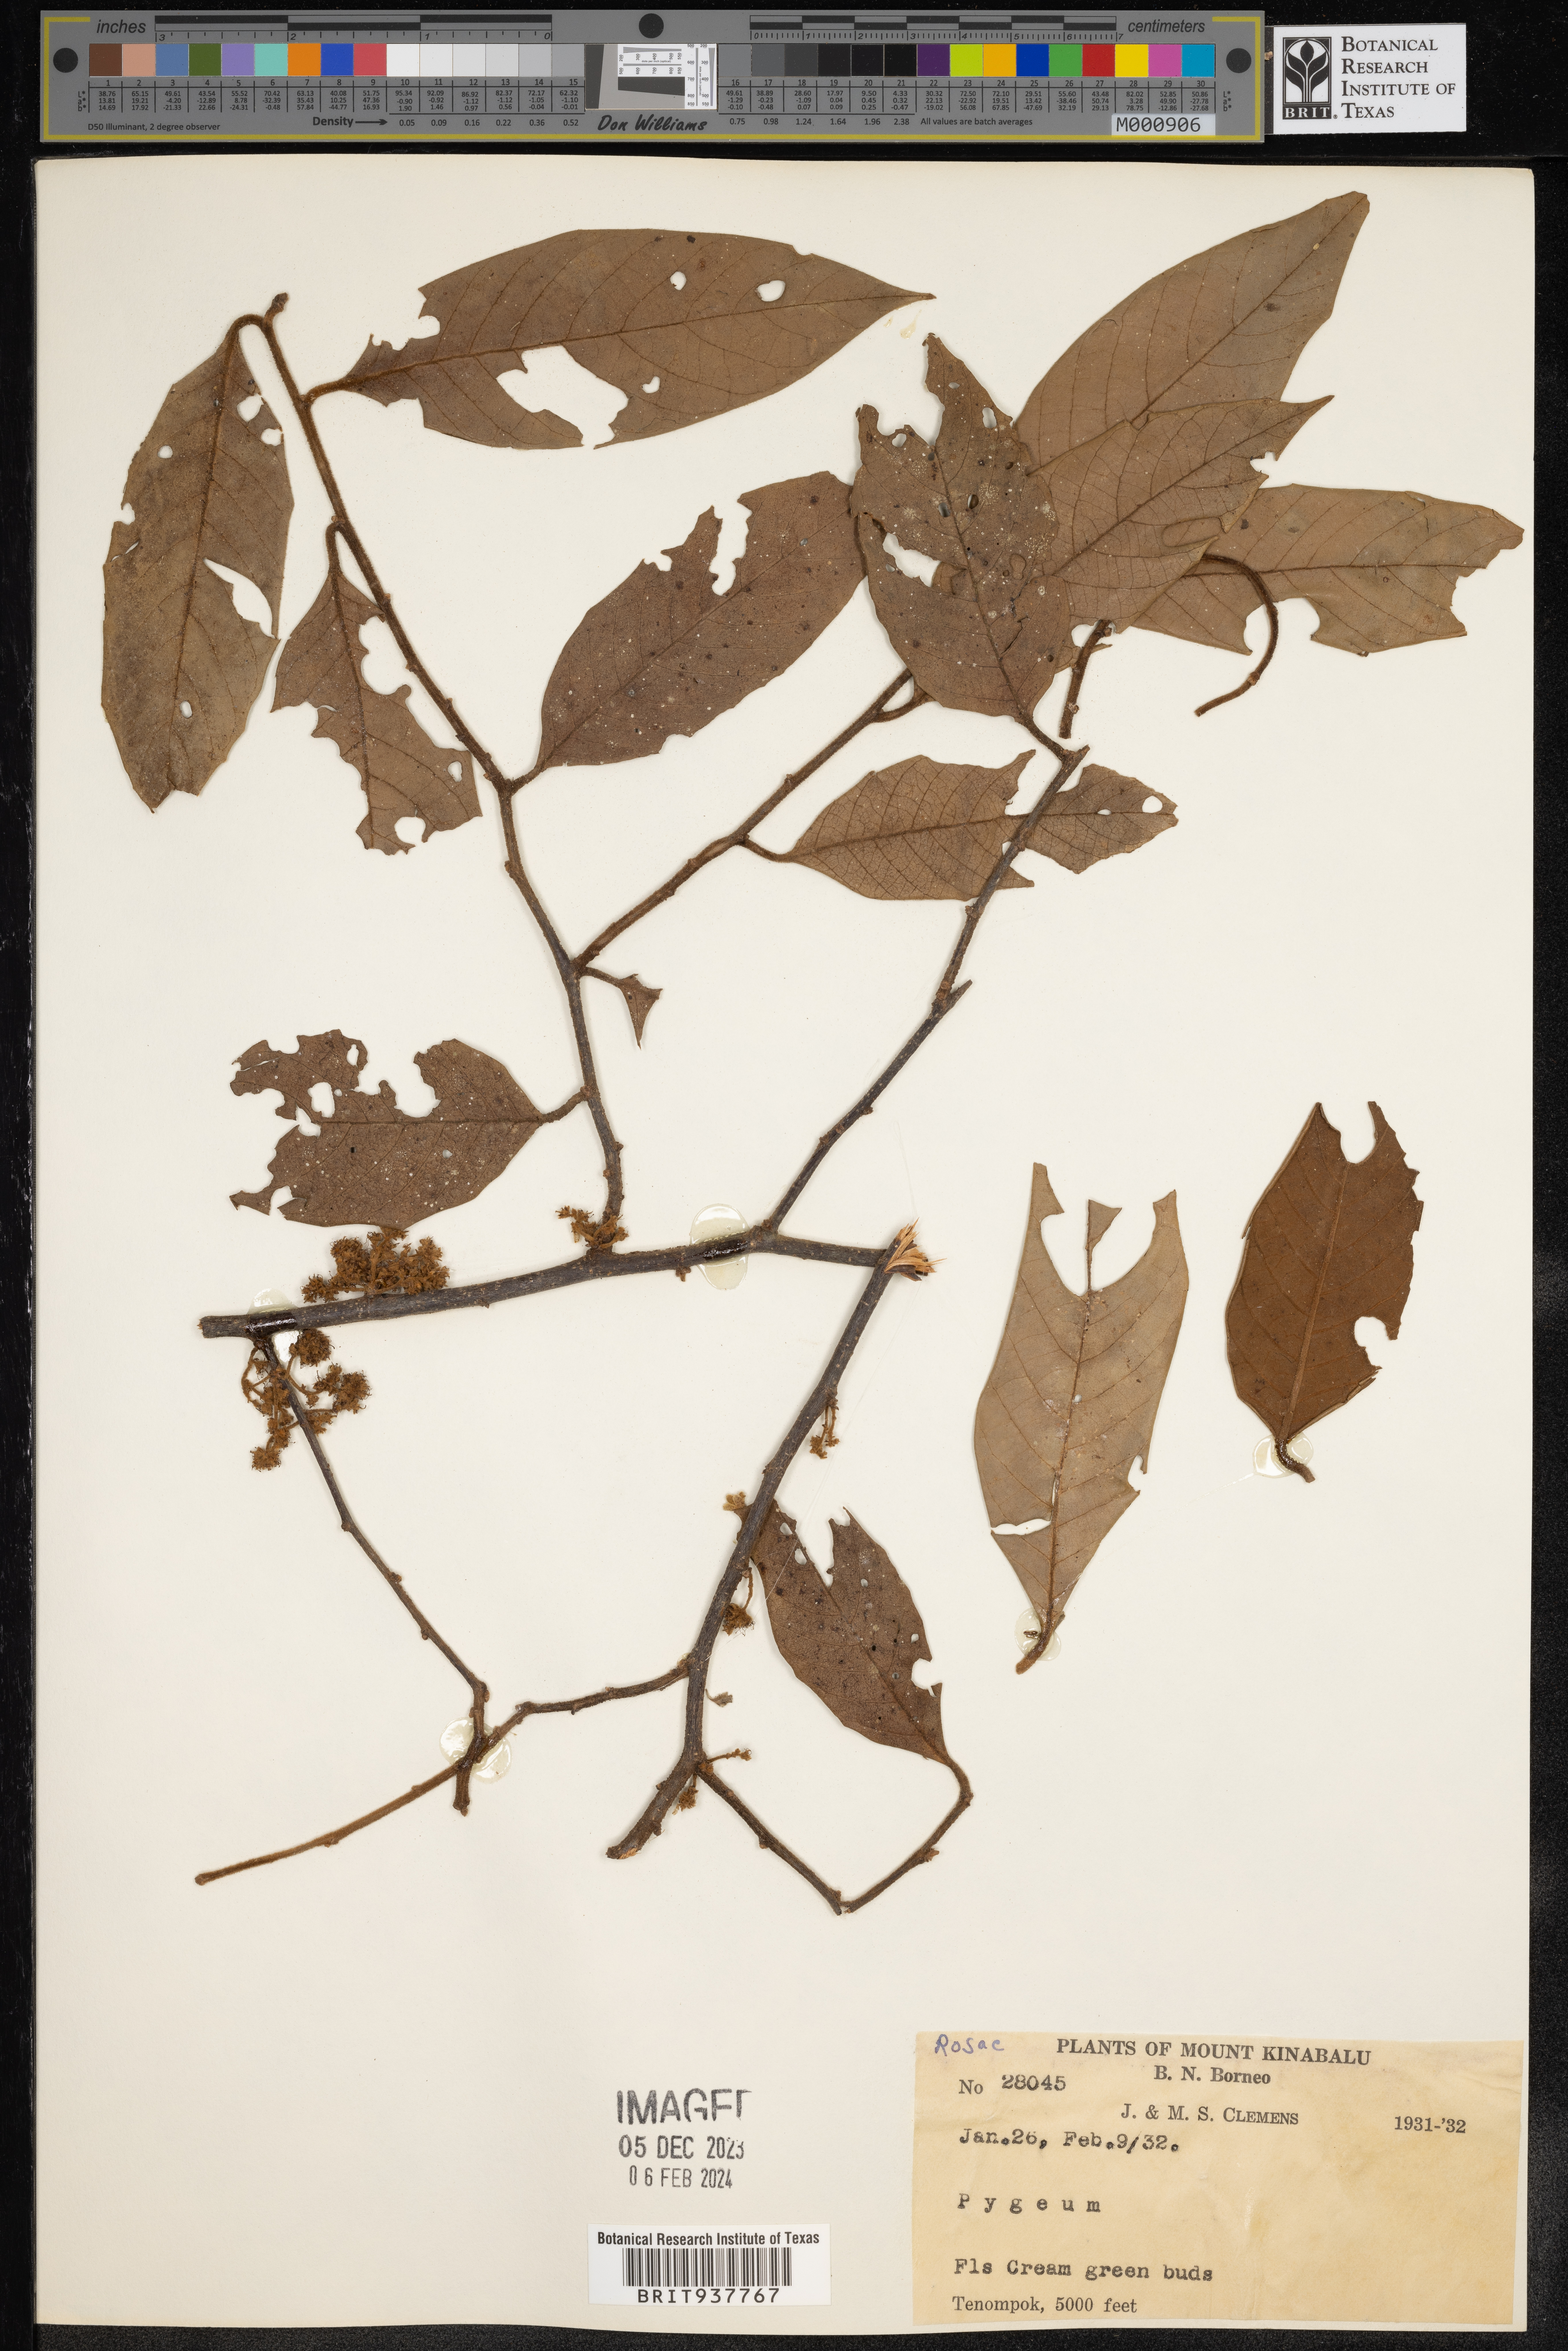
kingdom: Plantae
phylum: Tracheophyta
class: Magnoliopsida
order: Rosales
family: Rosaceae
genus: Prunus
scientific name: Prunus
